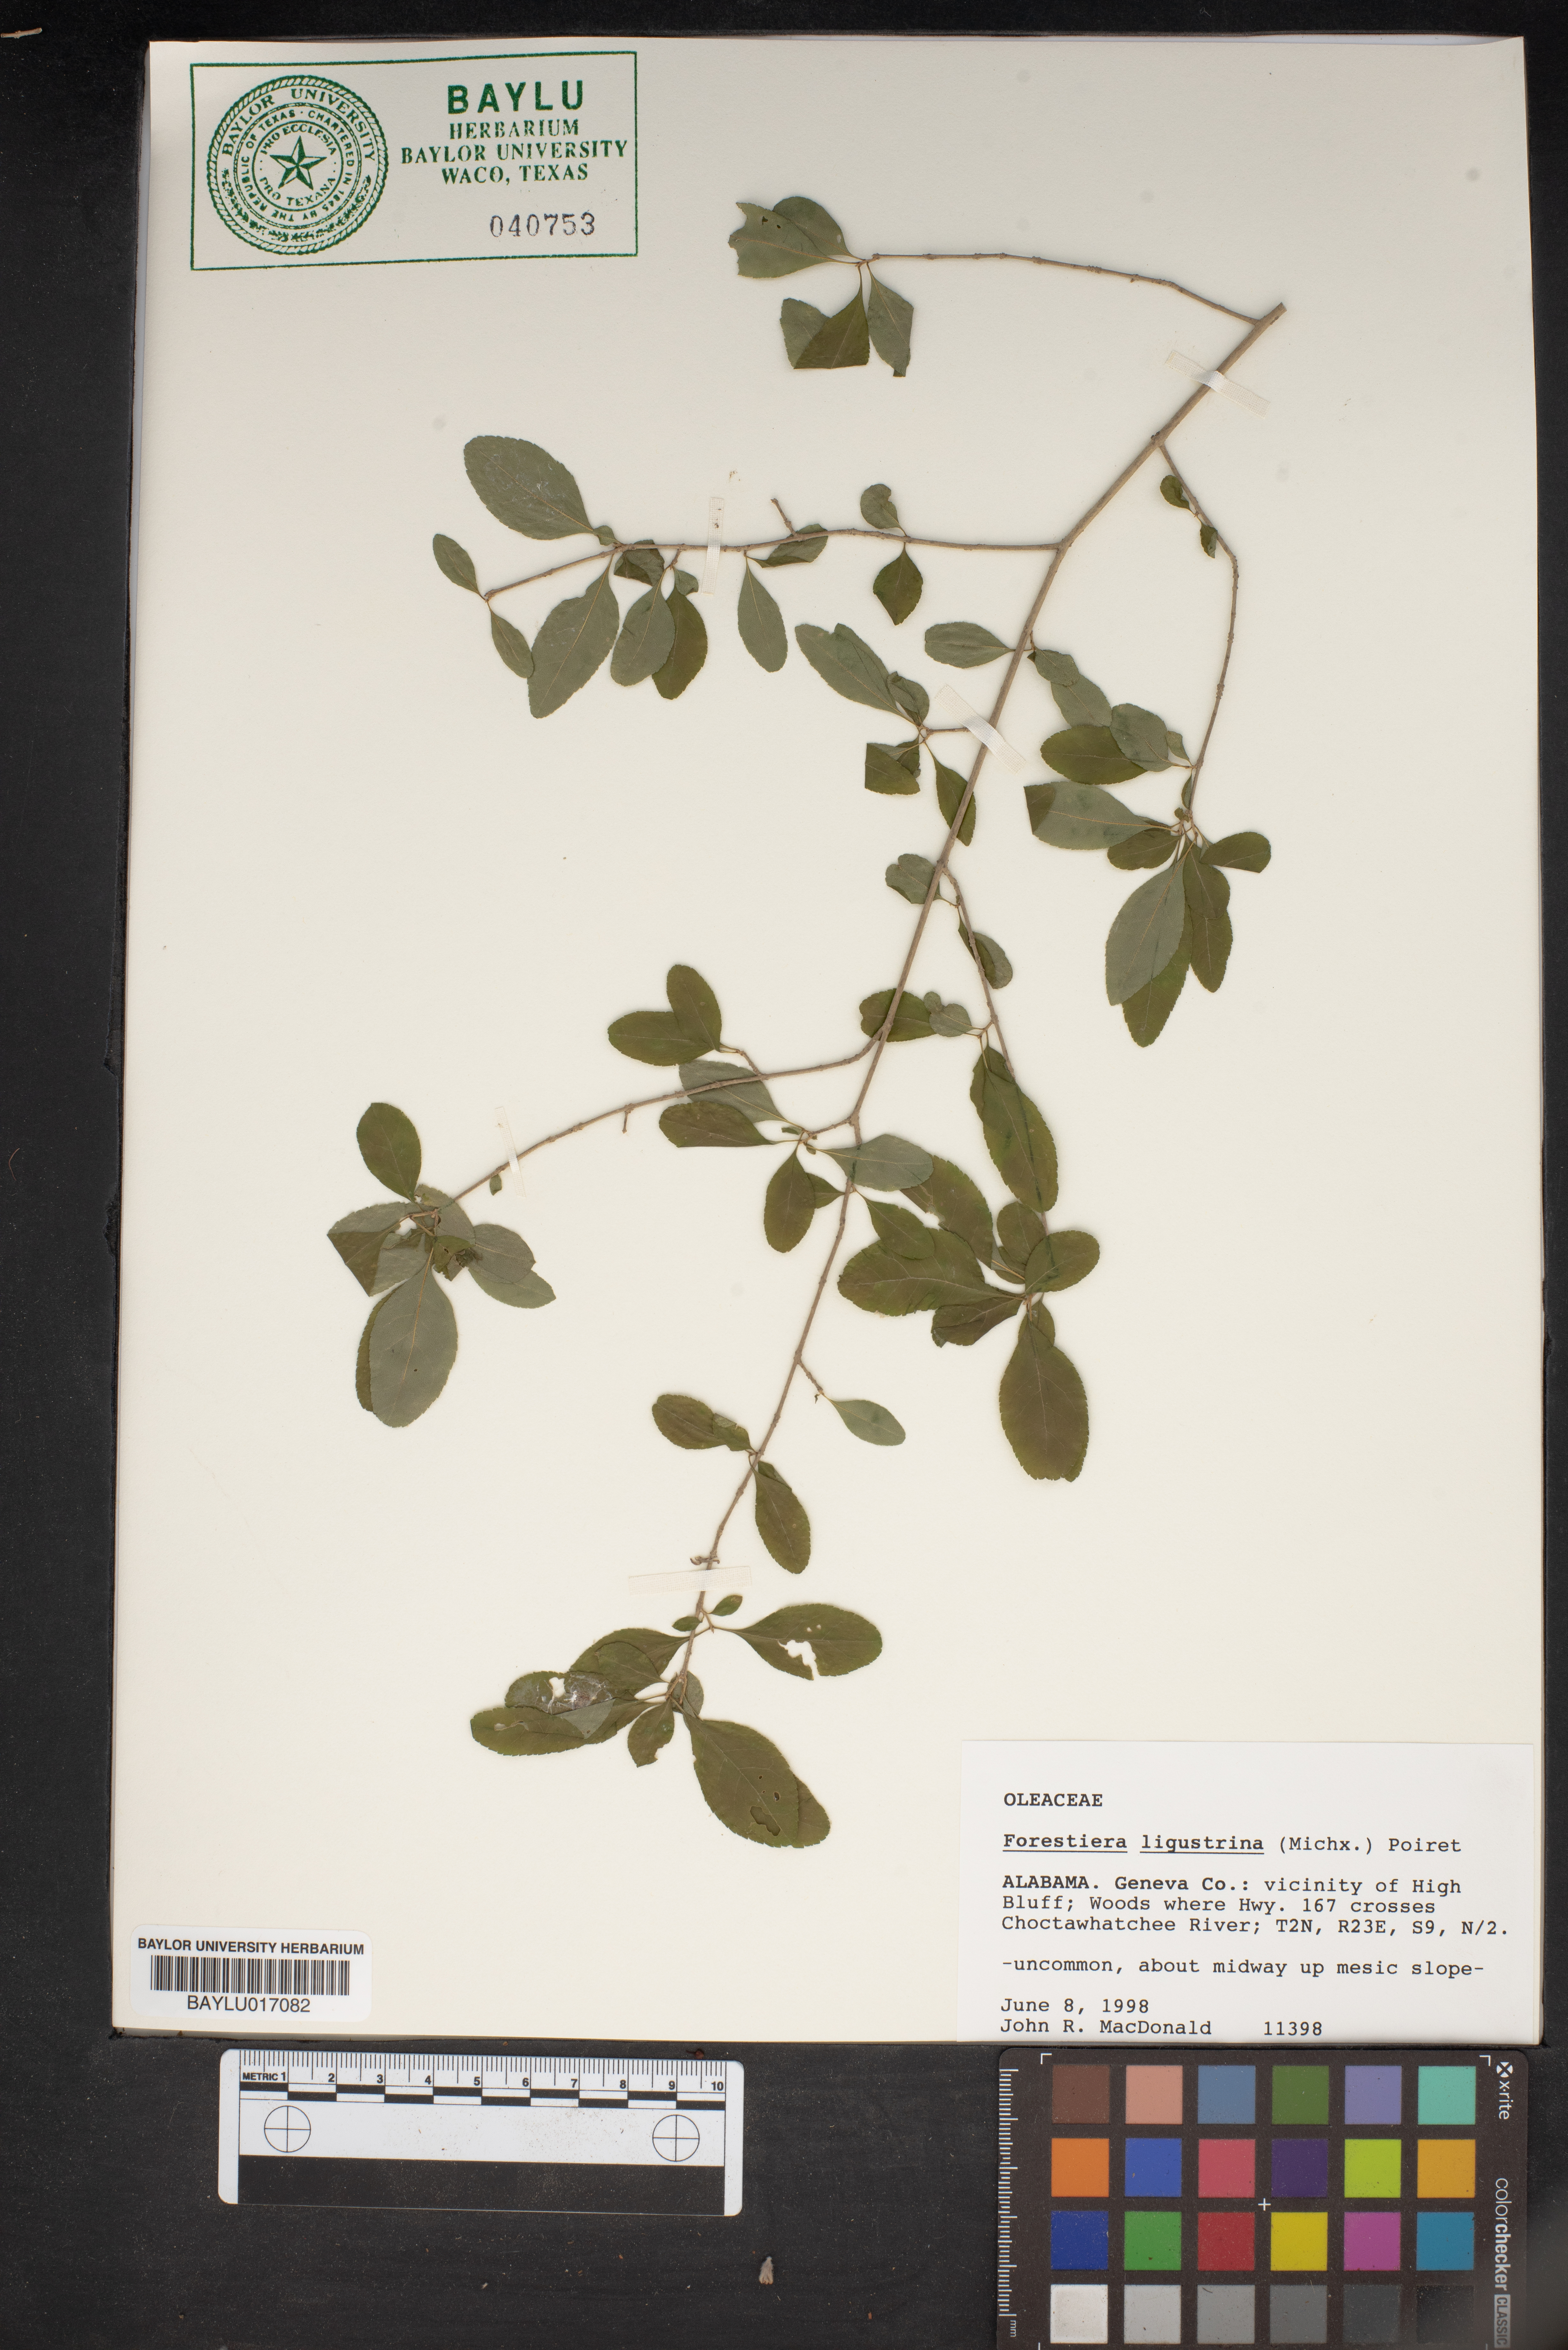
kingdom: Plantae
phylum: Tracheophyta
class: Magnoliopsida
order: Lamiales
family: Oleaceae
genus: Forestiera
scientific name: Forestiera ligustrina
